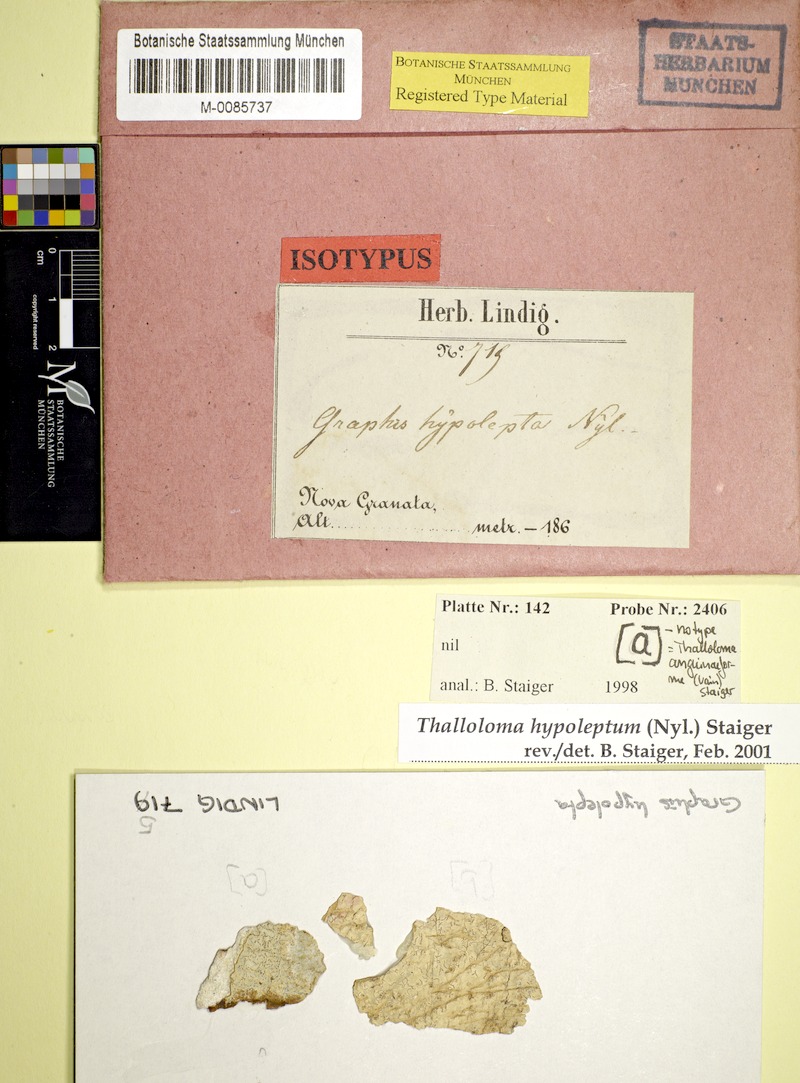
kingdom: Fungi
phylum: Ascomycota
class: Lecanoromycetes
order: Ostropales
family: Graphidaceae
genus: Platythecium
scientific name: Platythecium hypoleptum
